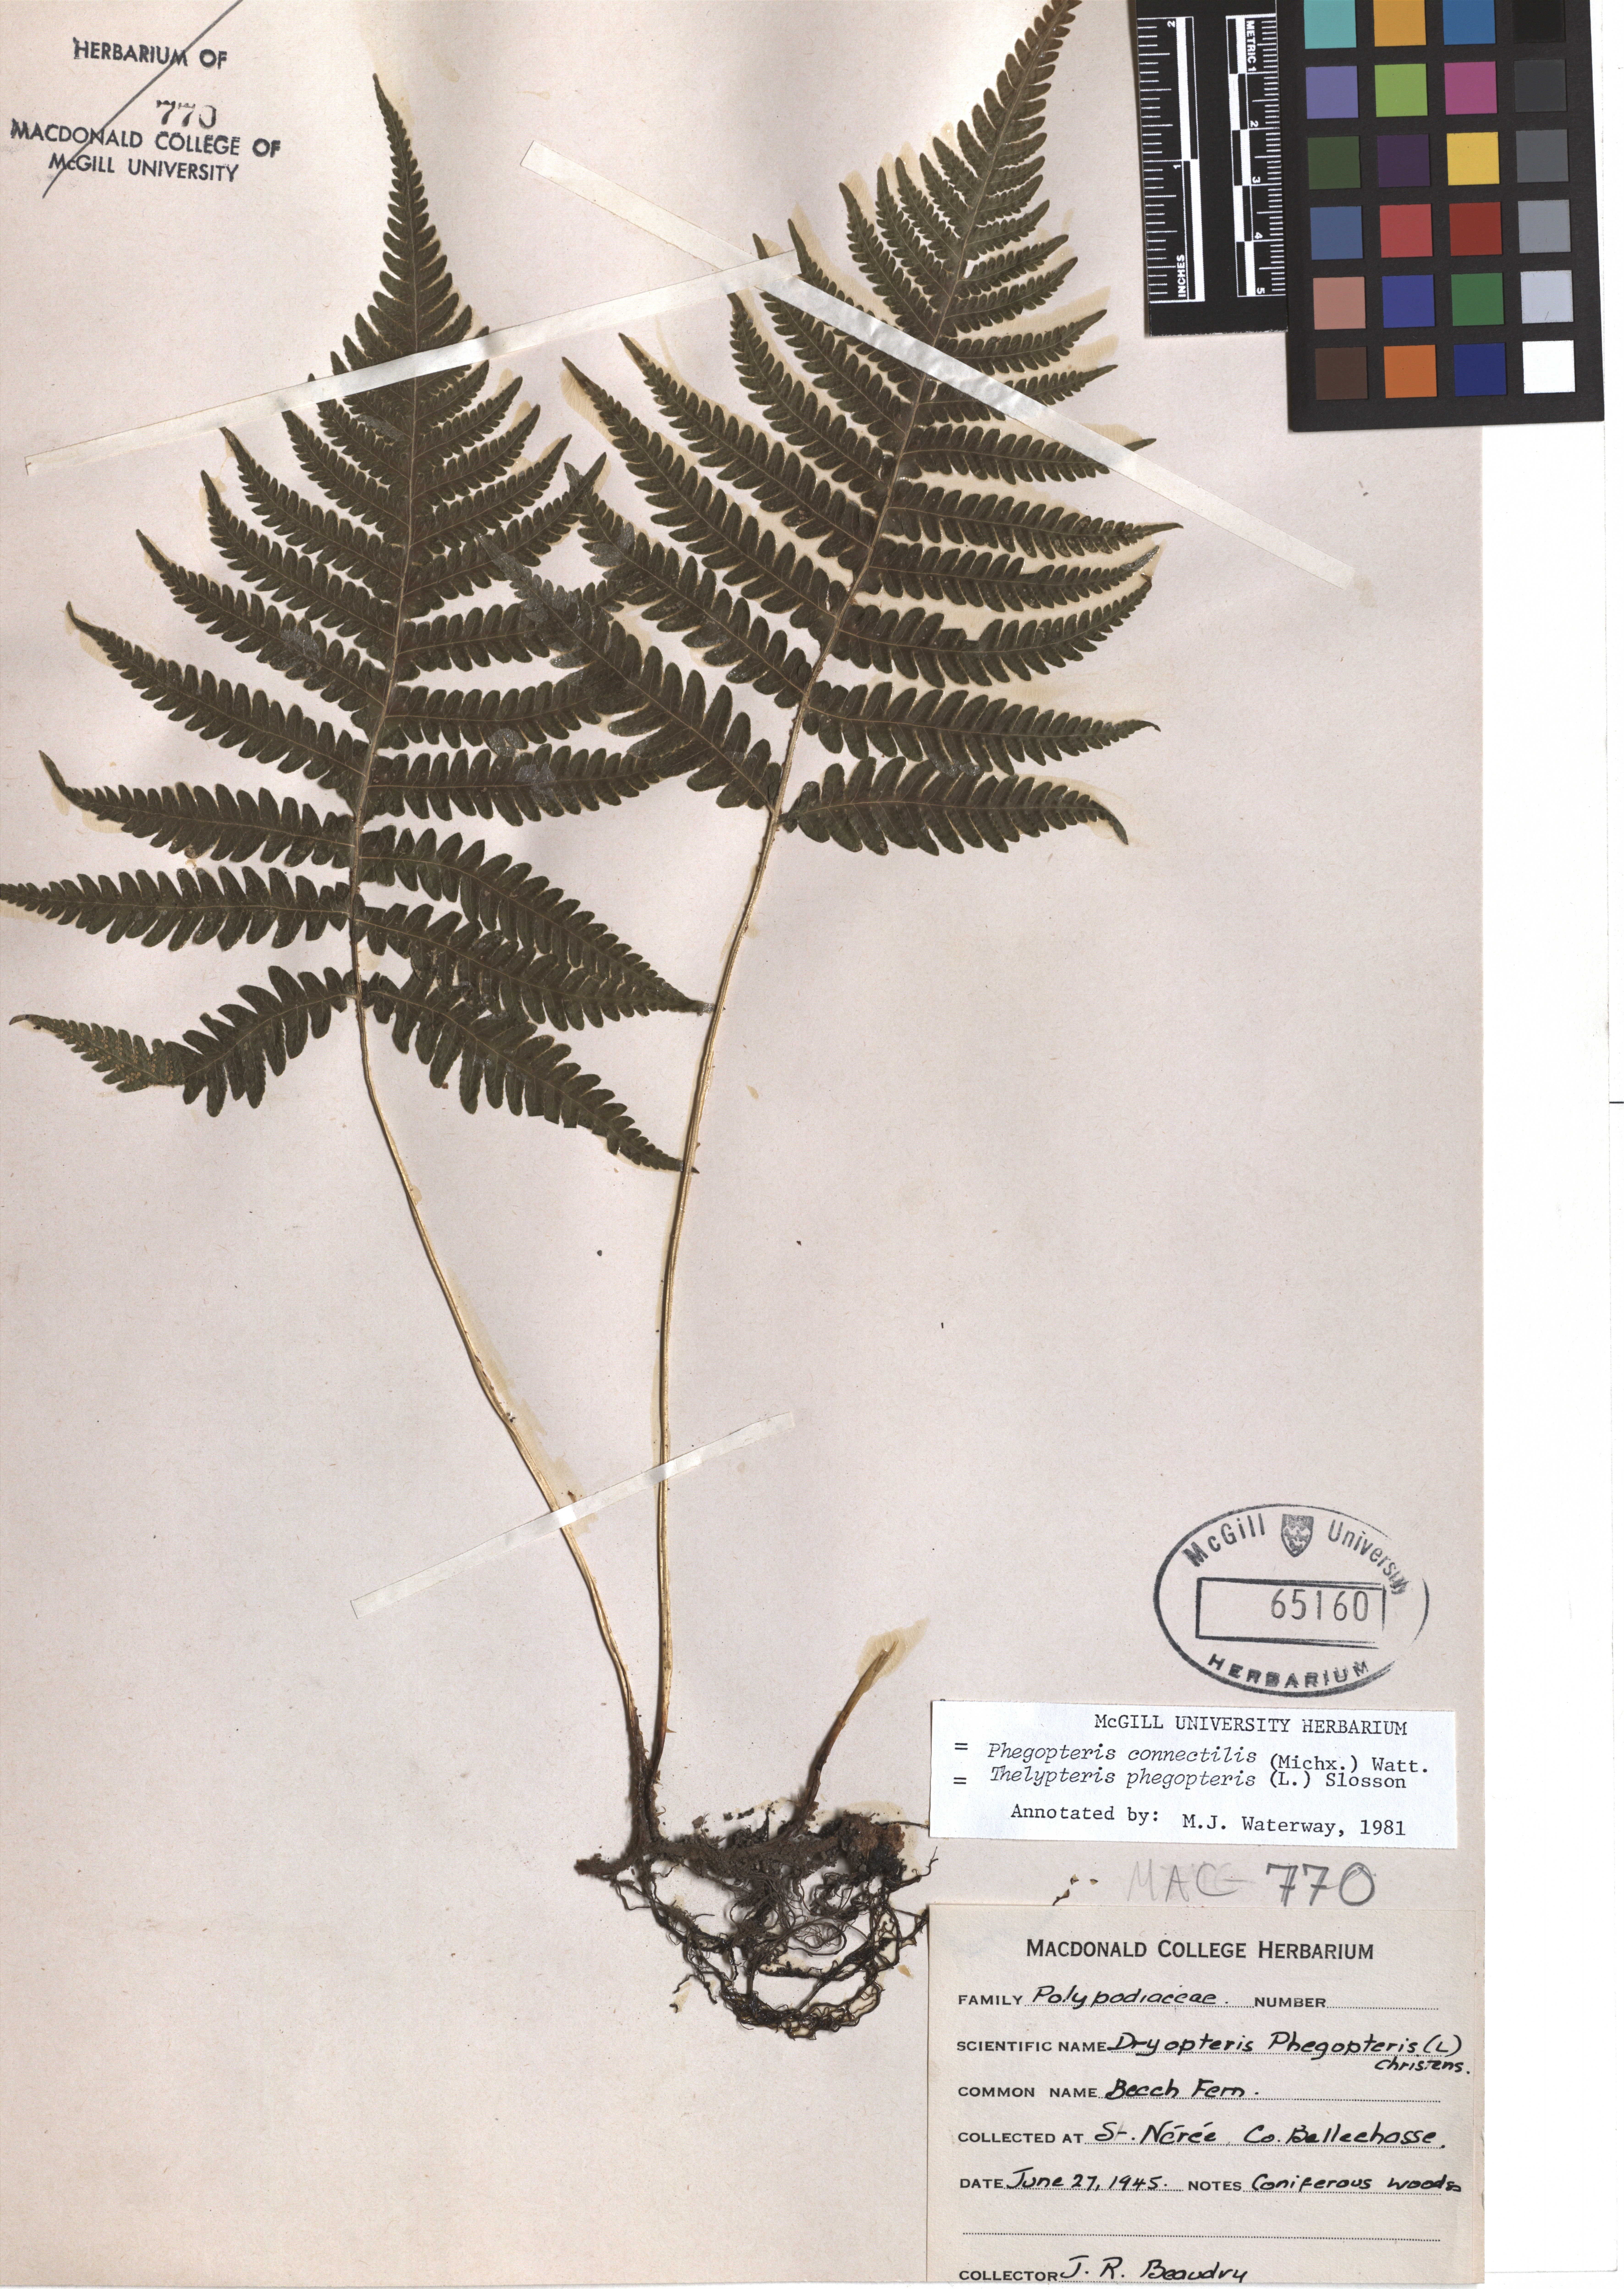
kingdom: Plantae
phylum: Tracheophyta
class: Polypodiopsida
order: Polypodiales
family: Thelypteridaceae
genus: Phegopteris
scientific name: Phegopteris connectilis
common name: Beech fern
